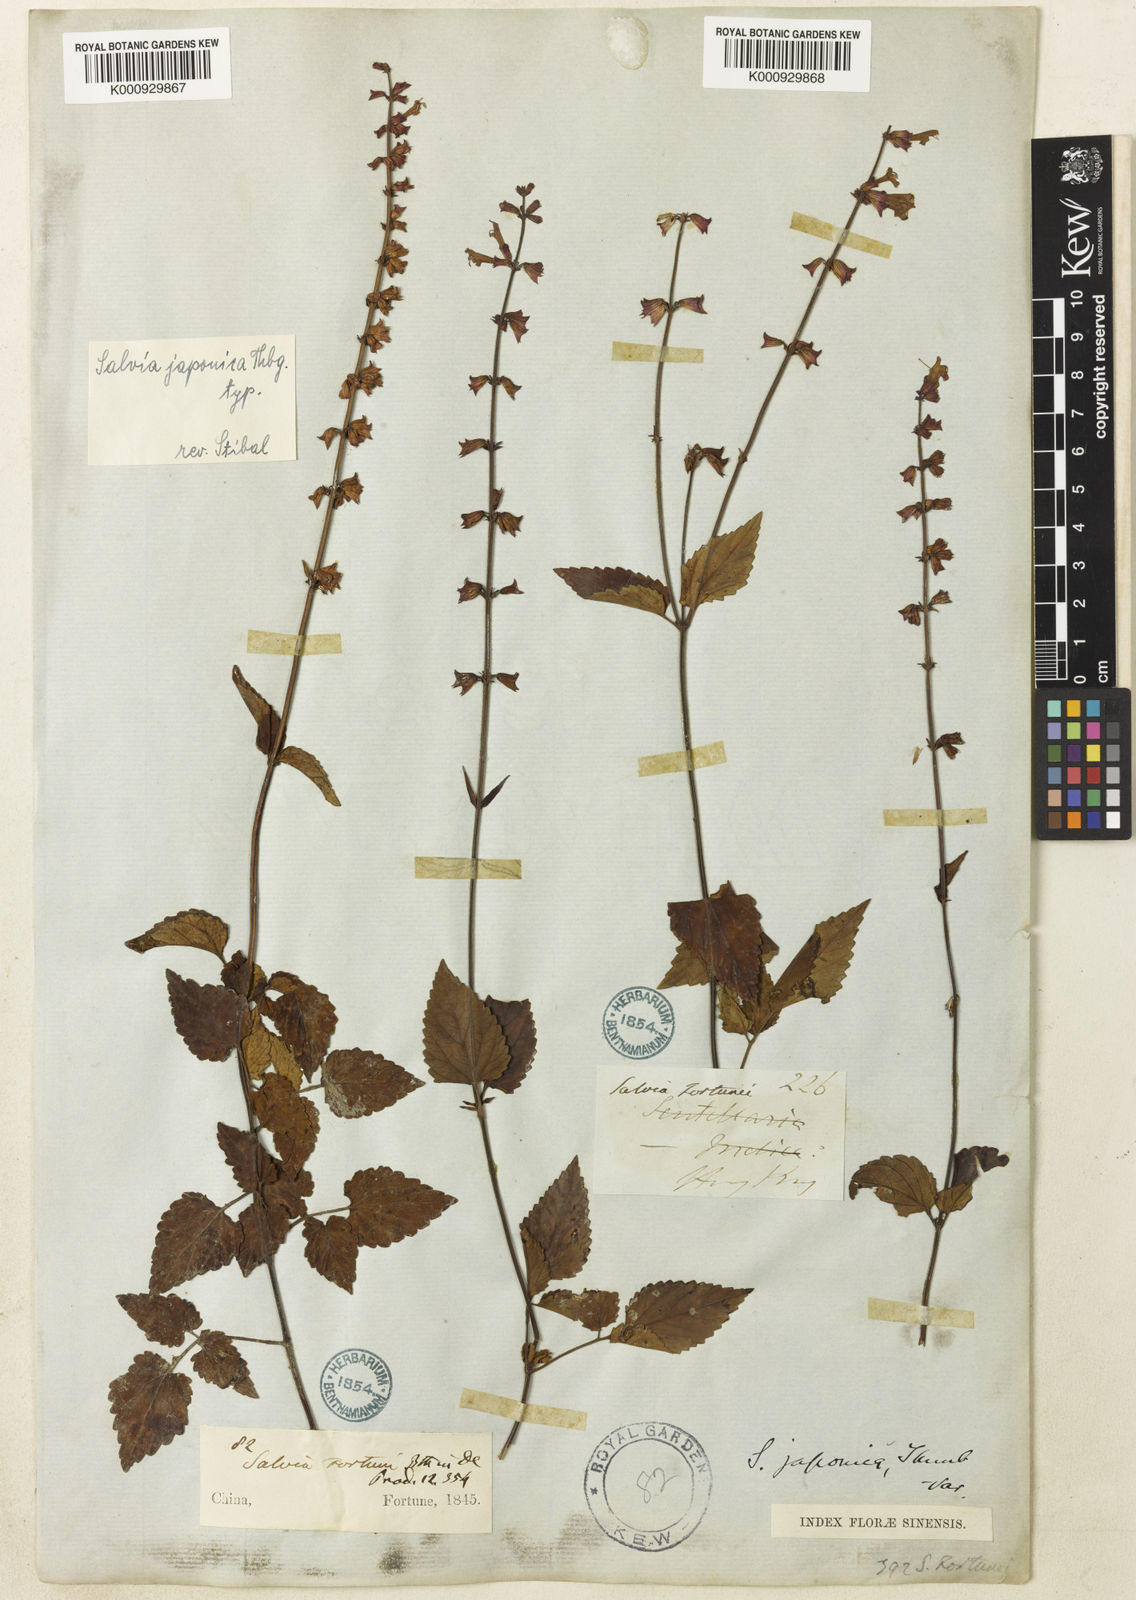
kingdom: Plantae
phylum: Tracheophyta
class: Magnoliopsida
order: Lamiales
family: Lamiaceae
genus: Salvia
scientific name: Salvia japonica
